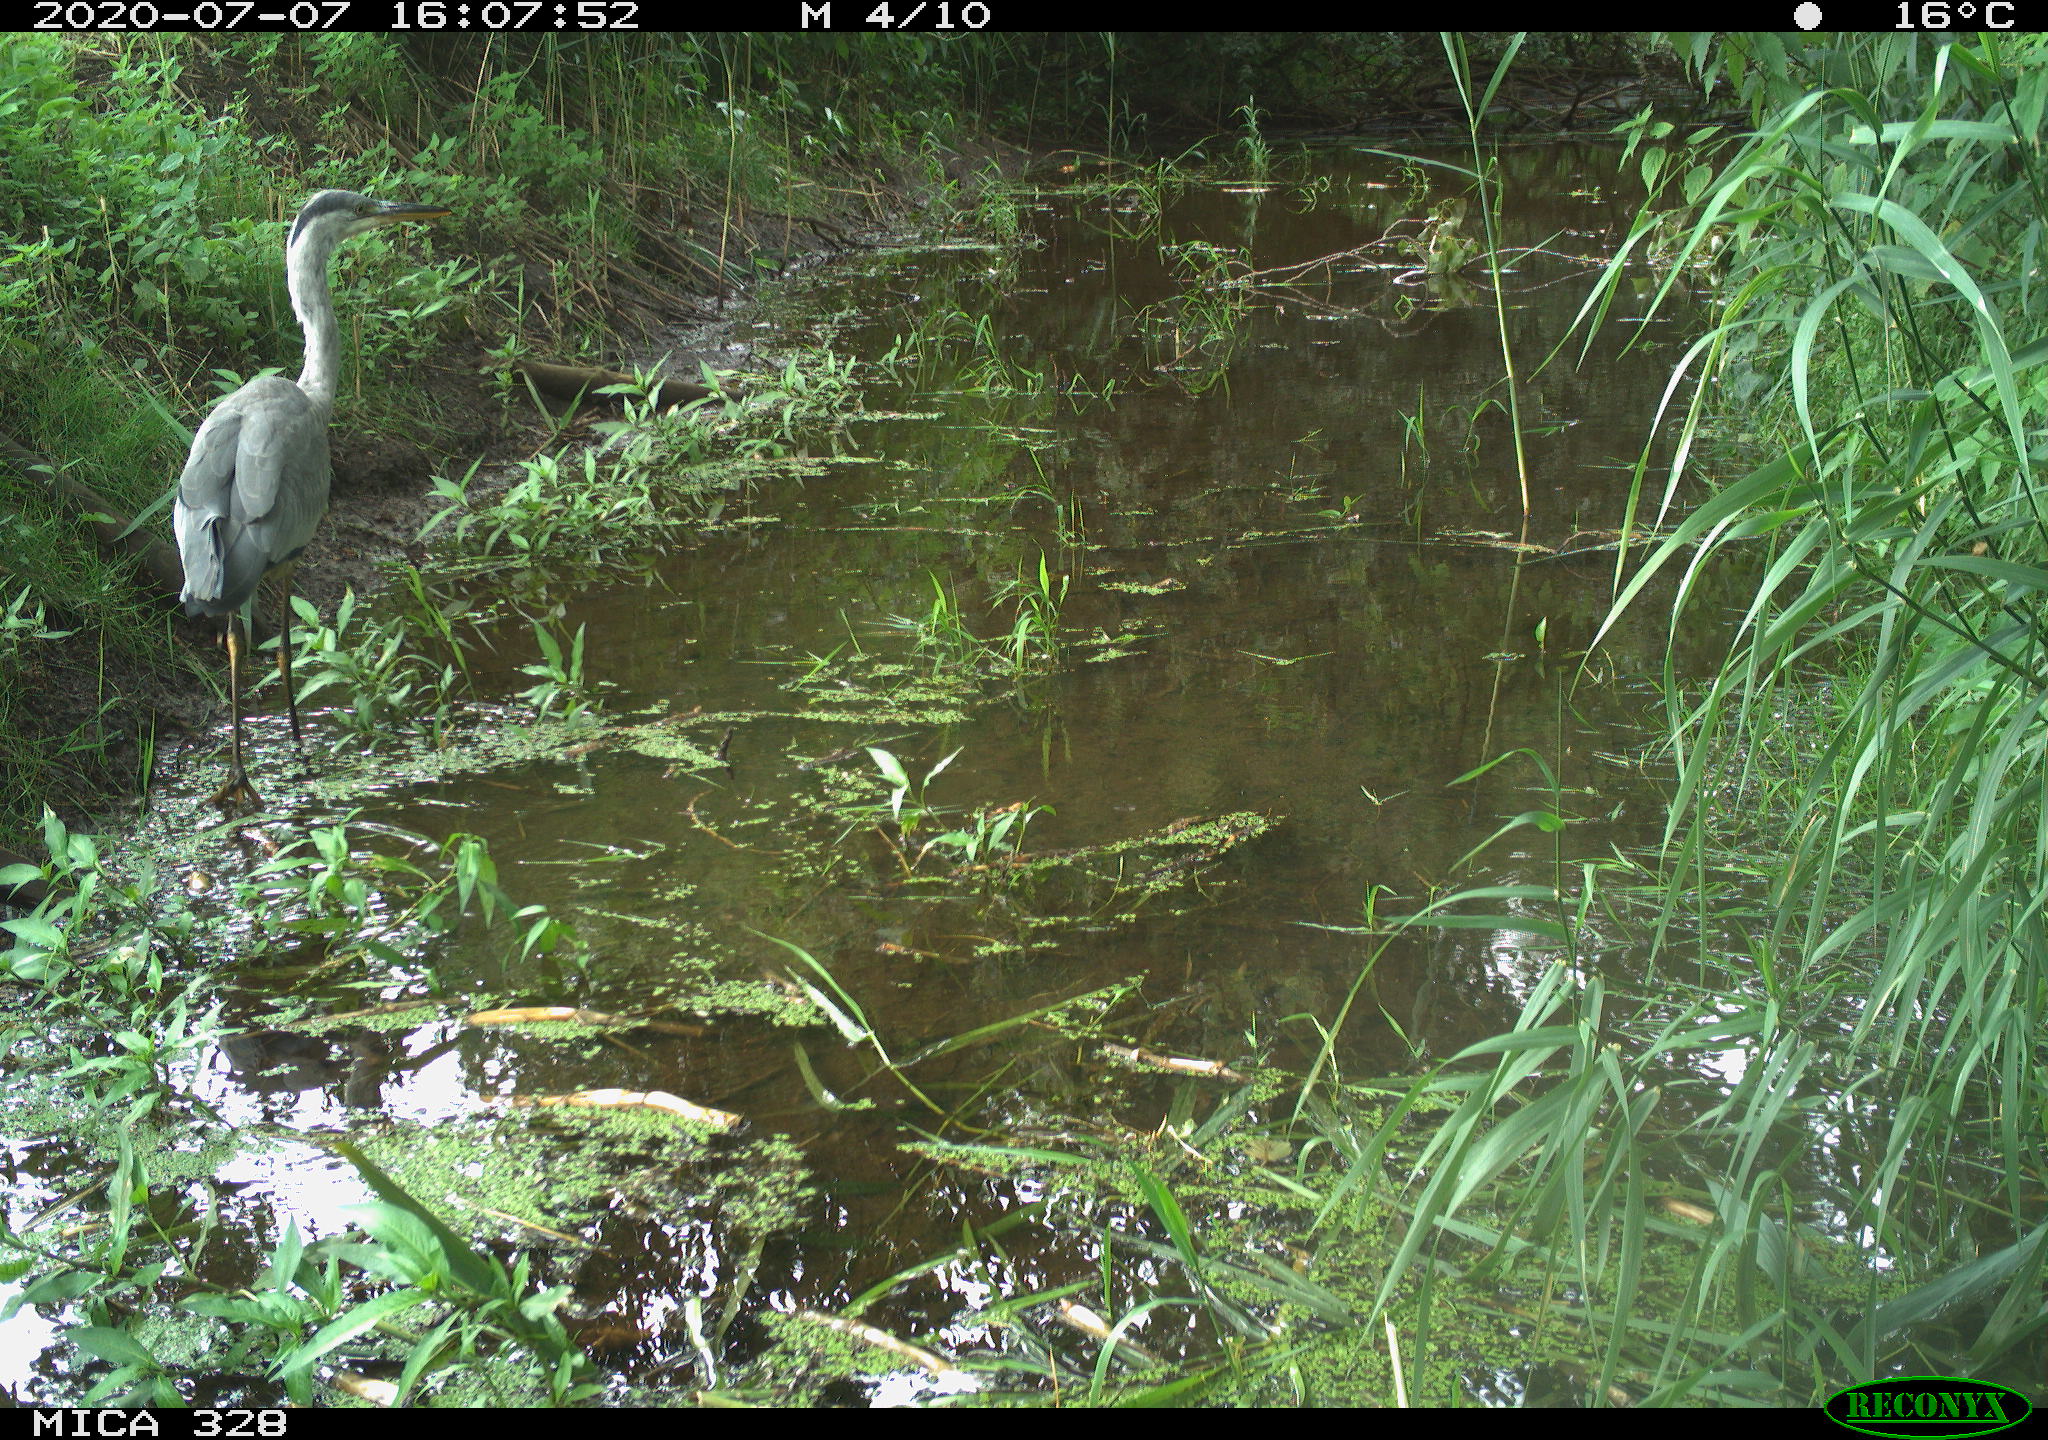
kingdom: Animalia
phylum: Chordata
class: Aves
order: Pelecaniformes
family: Ardeidae
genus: Ardea
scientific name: Ardea cinerea
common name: Grey heron
